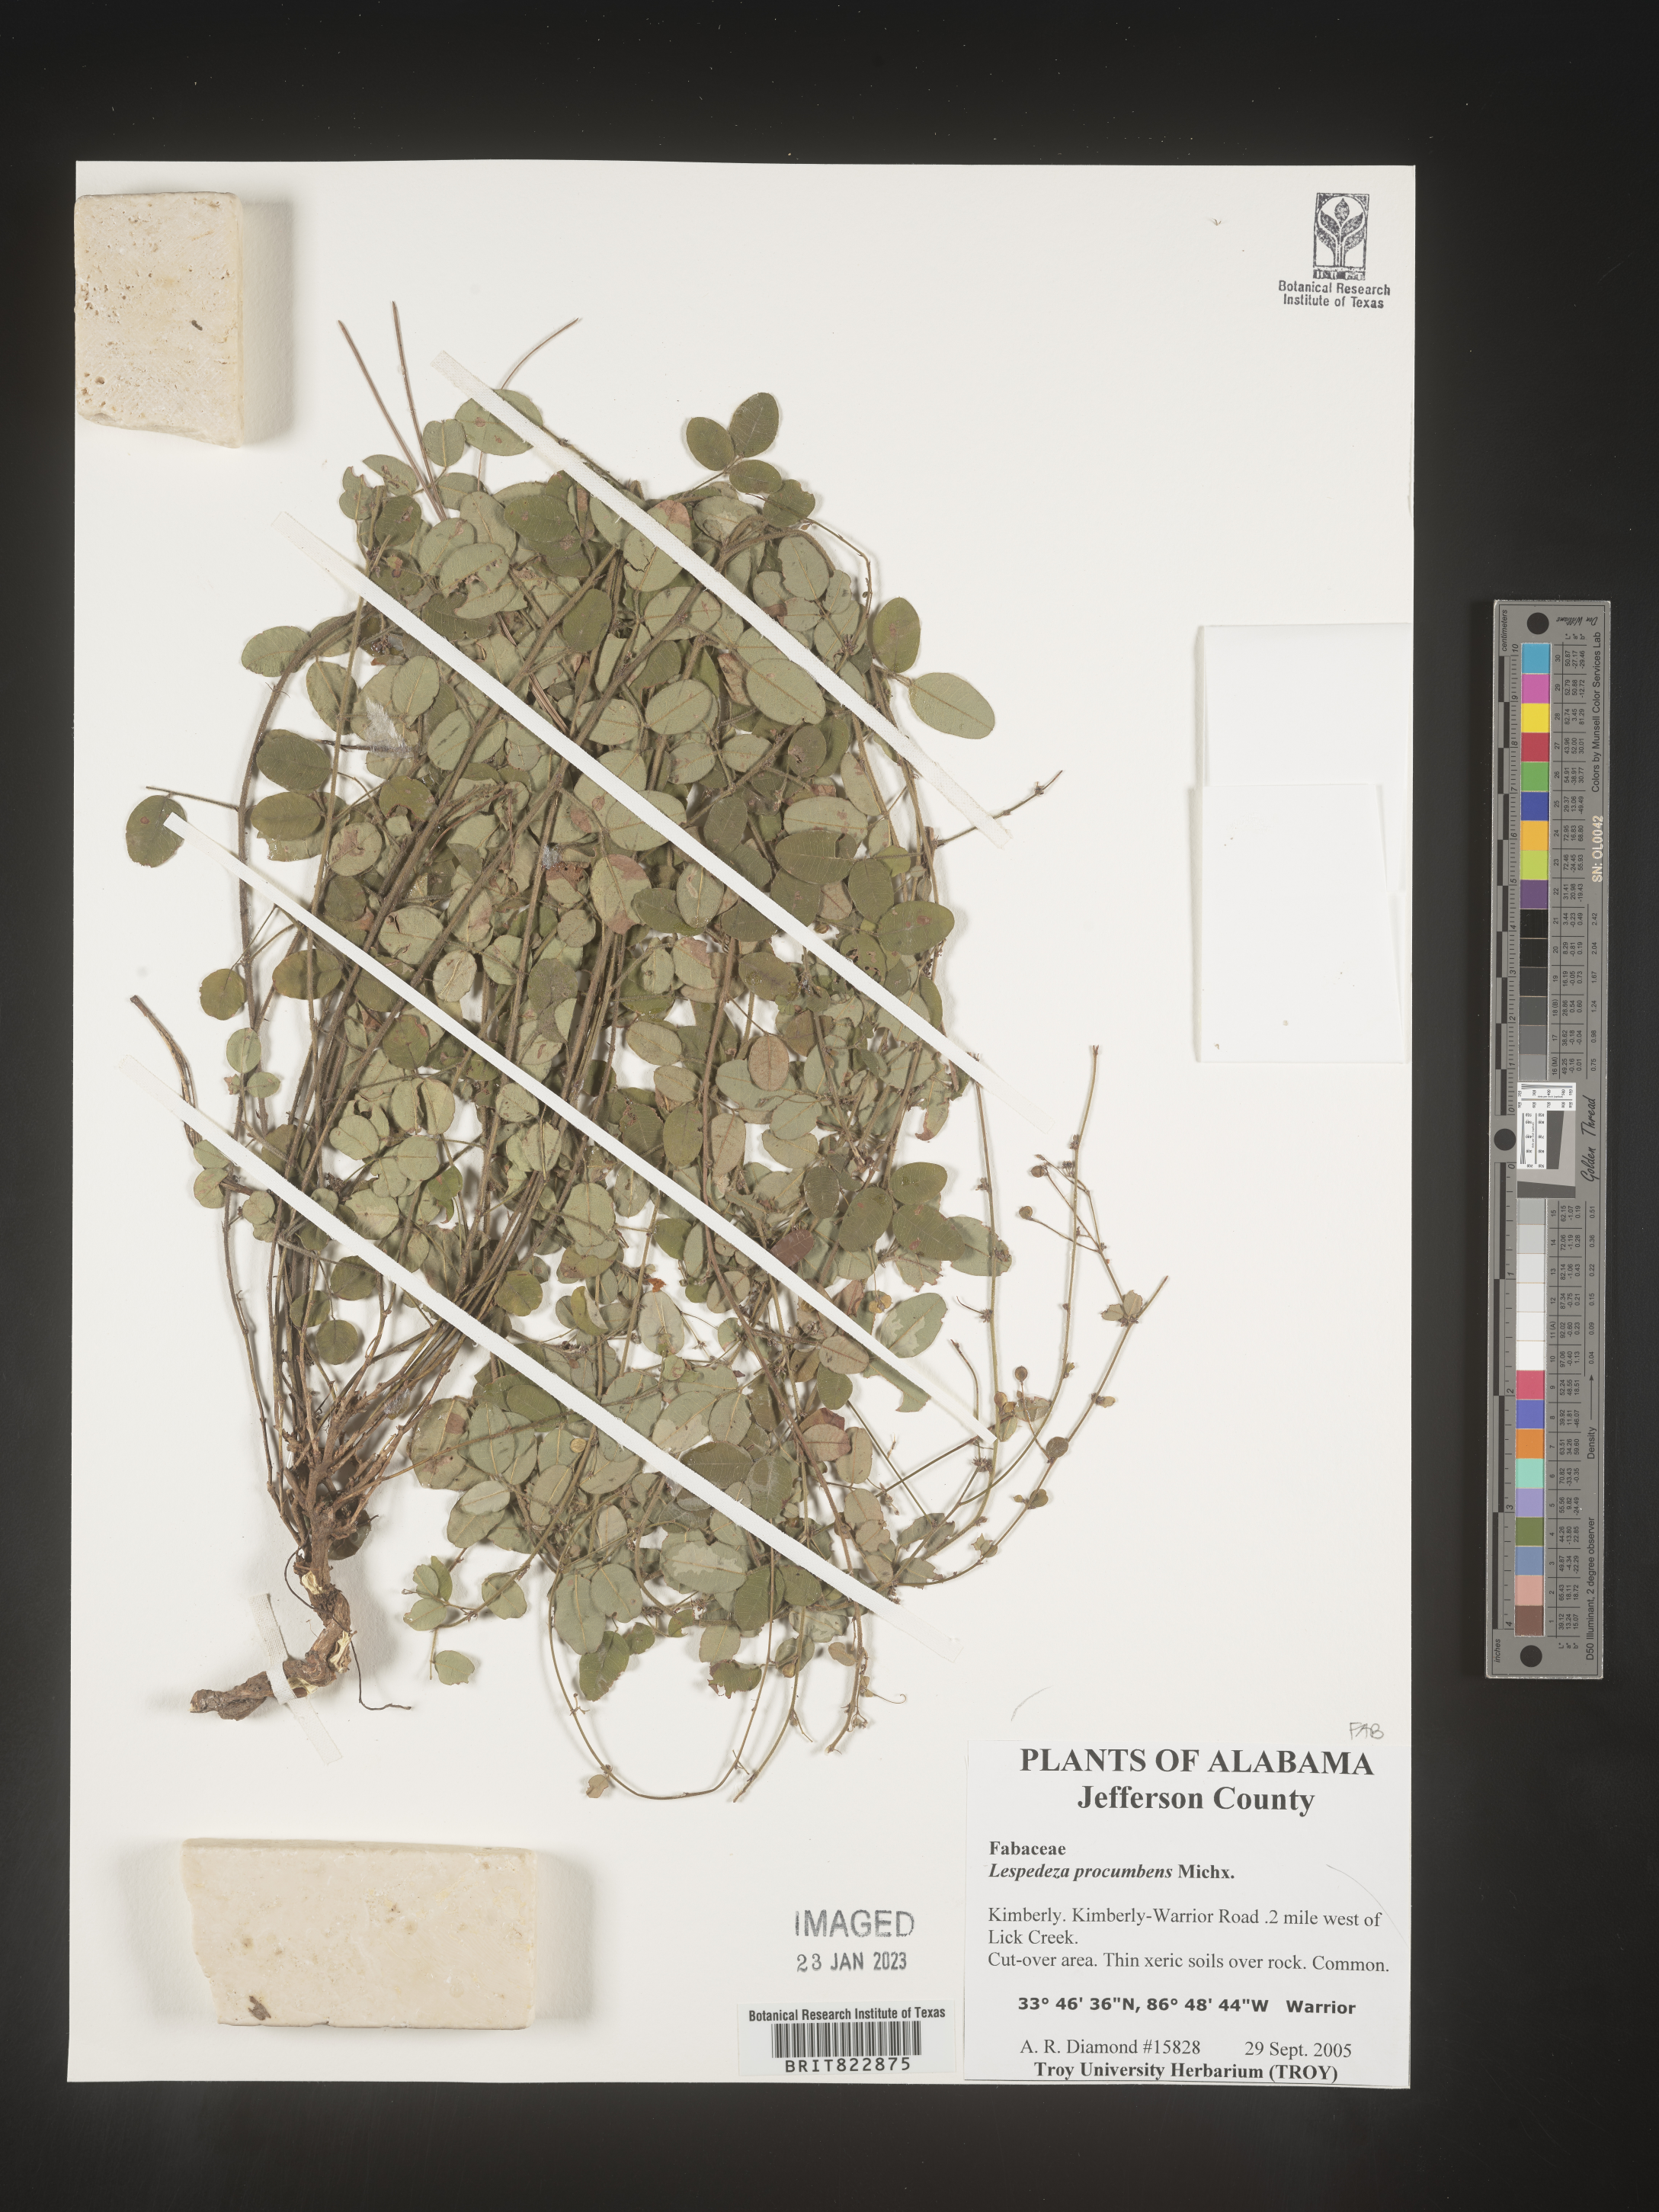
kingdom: Plantae
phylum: Tracheophyta
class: Magnoliopsida
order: Fabales
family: Fabaceae
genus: Lespedeza
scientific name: Lespedeza procumbens
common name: Downy trailing bush-clover
